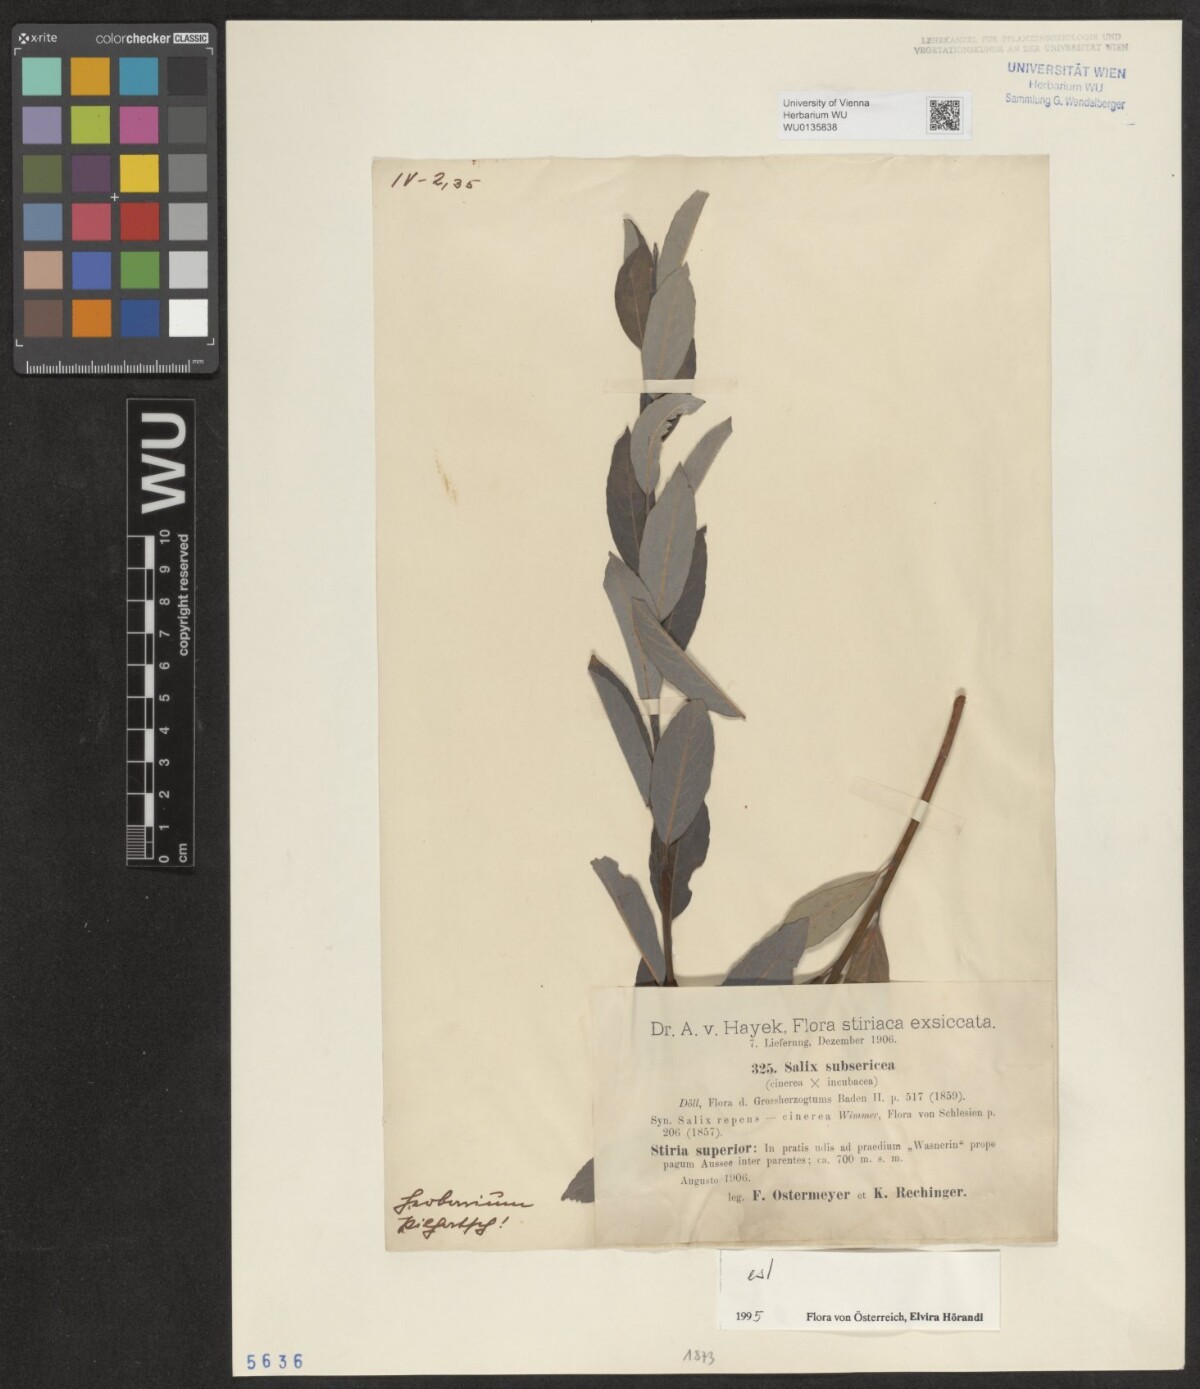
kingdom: Plantae
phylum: Tracheophyta
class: Magnoliopsida
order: Malpighiales
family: Salicaceae
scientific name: Salicaceae
